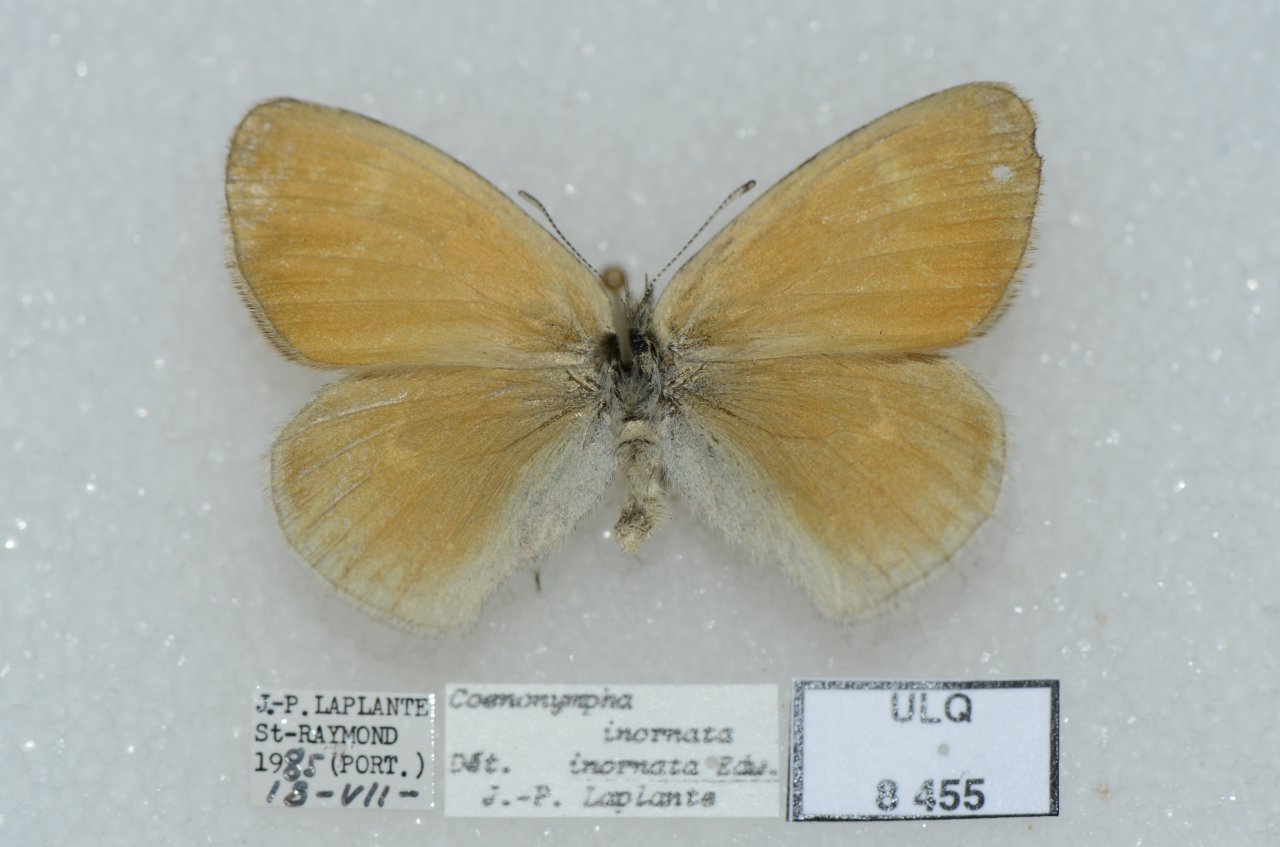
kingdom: Animalia
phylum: Arthropoda
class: Insecta
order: Lepidoptera
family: Nymphalidae
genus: Coenonympha
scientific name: Coenonympha tullia
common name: Large Heath
